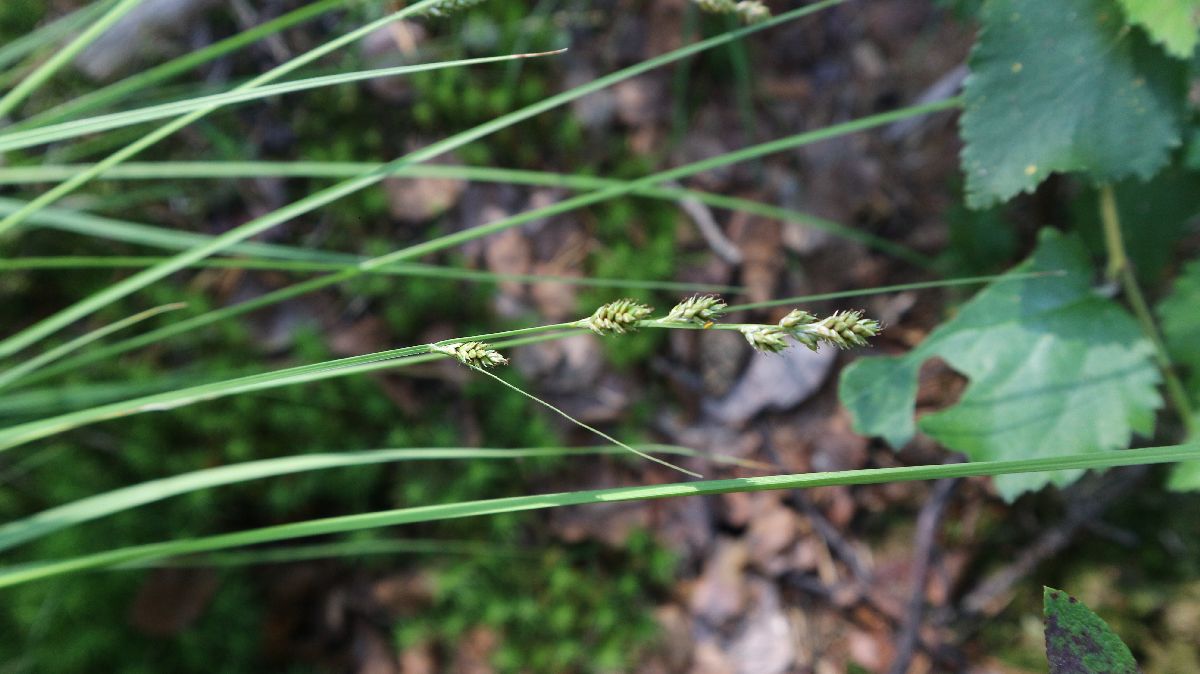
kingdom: Plantae
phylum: Tracheophyta
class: Liliopsida
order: Poales
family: Cyperaceae
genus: Carex
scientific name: Carex canescens
